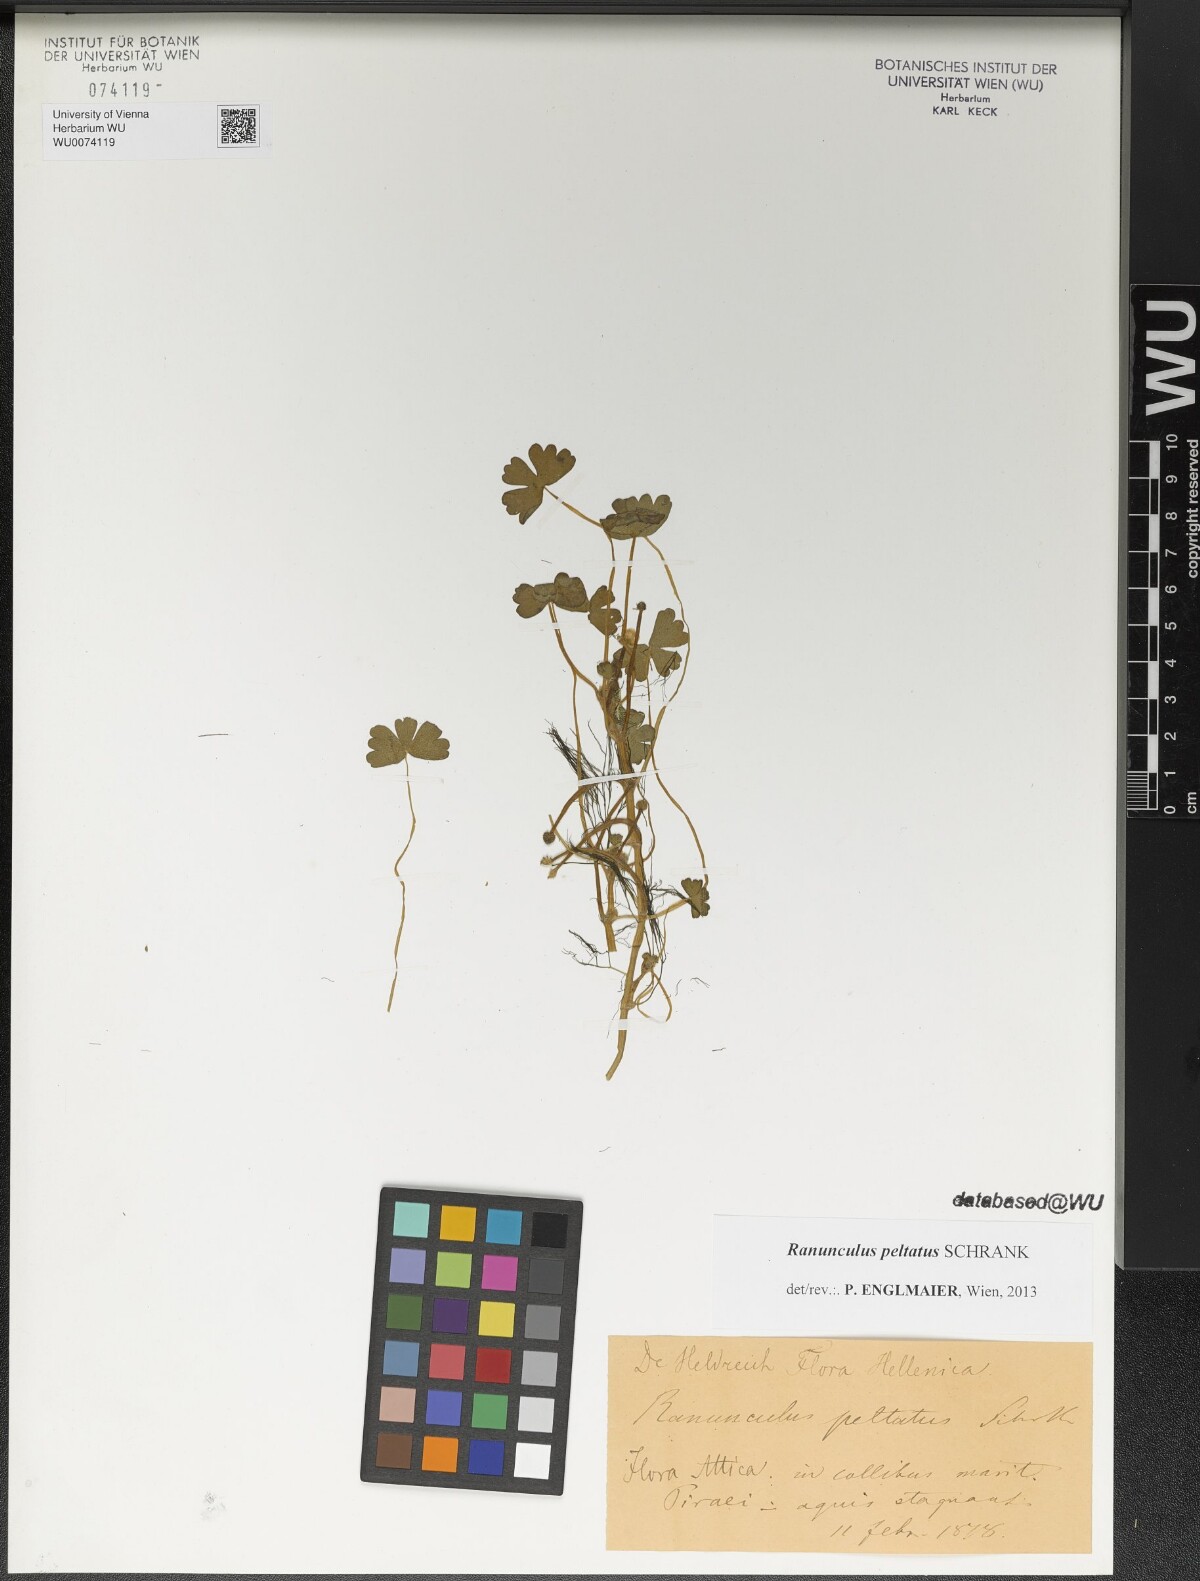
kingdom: Plantae
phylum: Tracheophyta
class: Magnoliopsida
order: Ranunculales
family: Ranunculaceae
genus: Ranunculus
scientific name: Ranunculus peltatus
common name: Pond water-crowfoot
